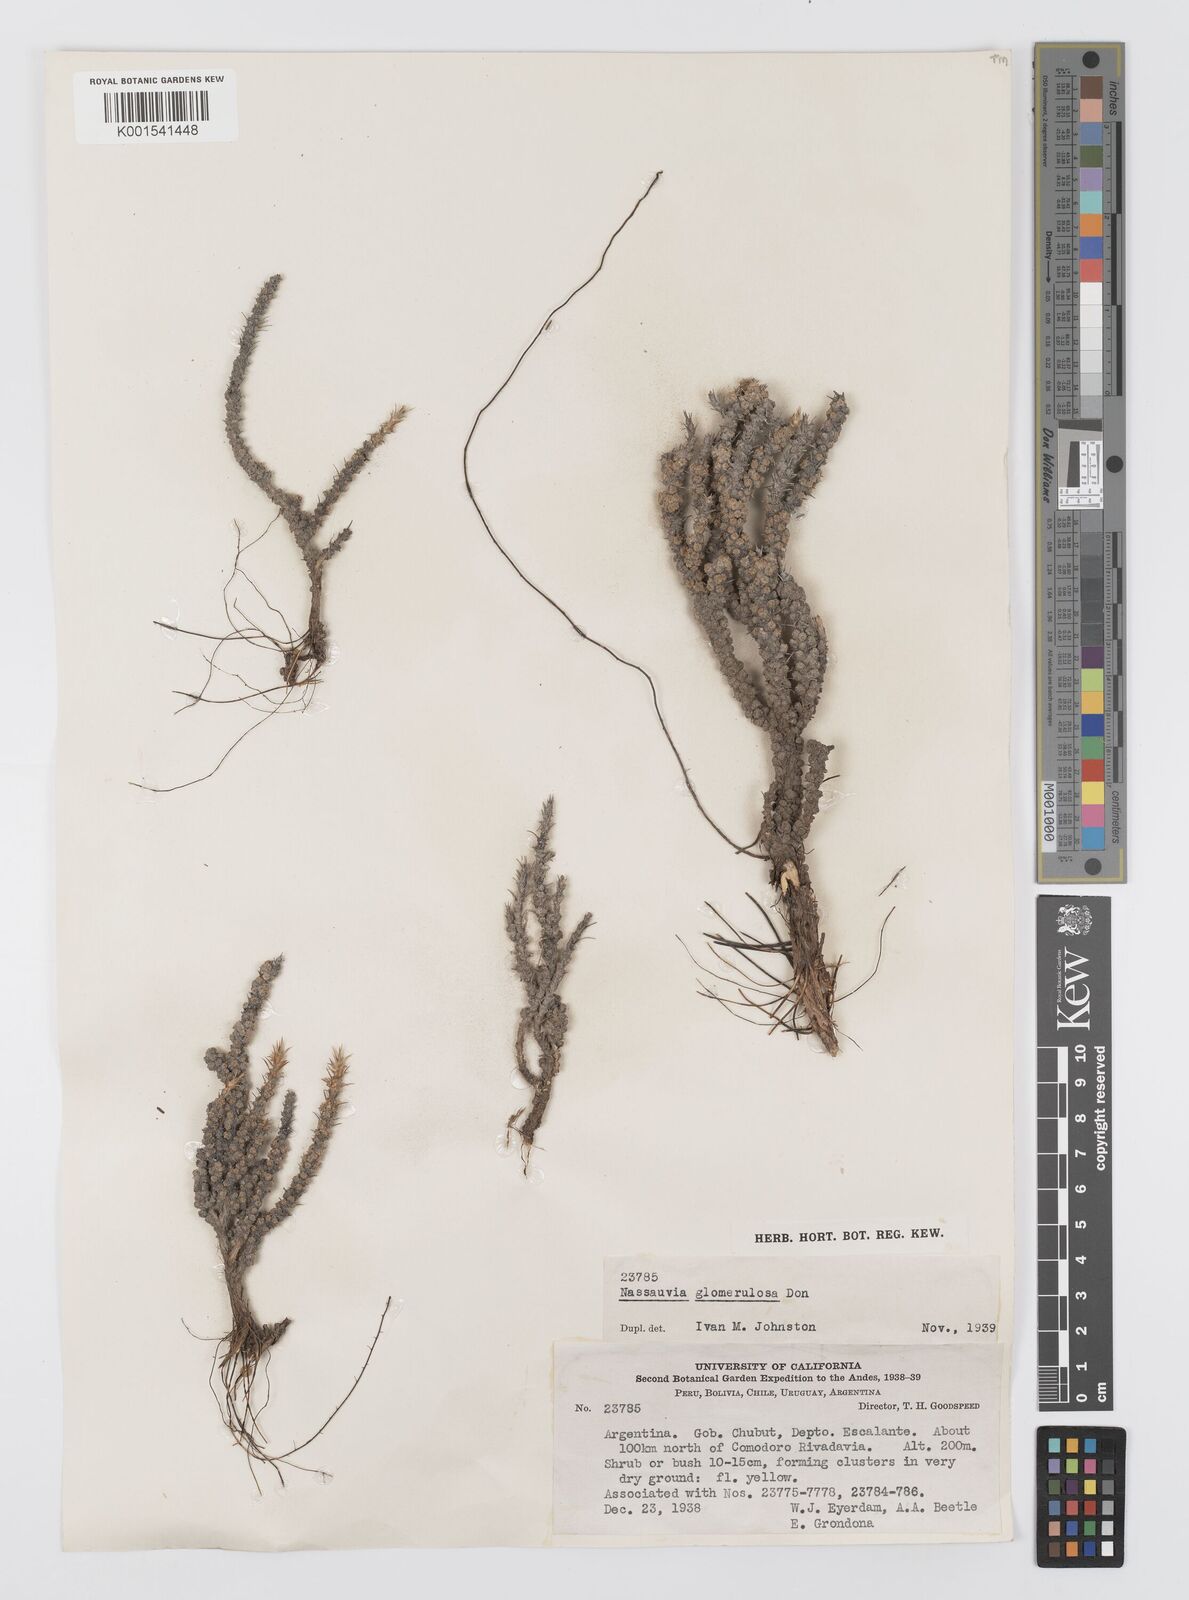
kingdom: Plantae
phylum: Tracheophyta
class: Magnoliopsida
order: Asterales
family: Asteraceae
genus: Nassauvia
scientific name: Nassauvia glomerulosa
